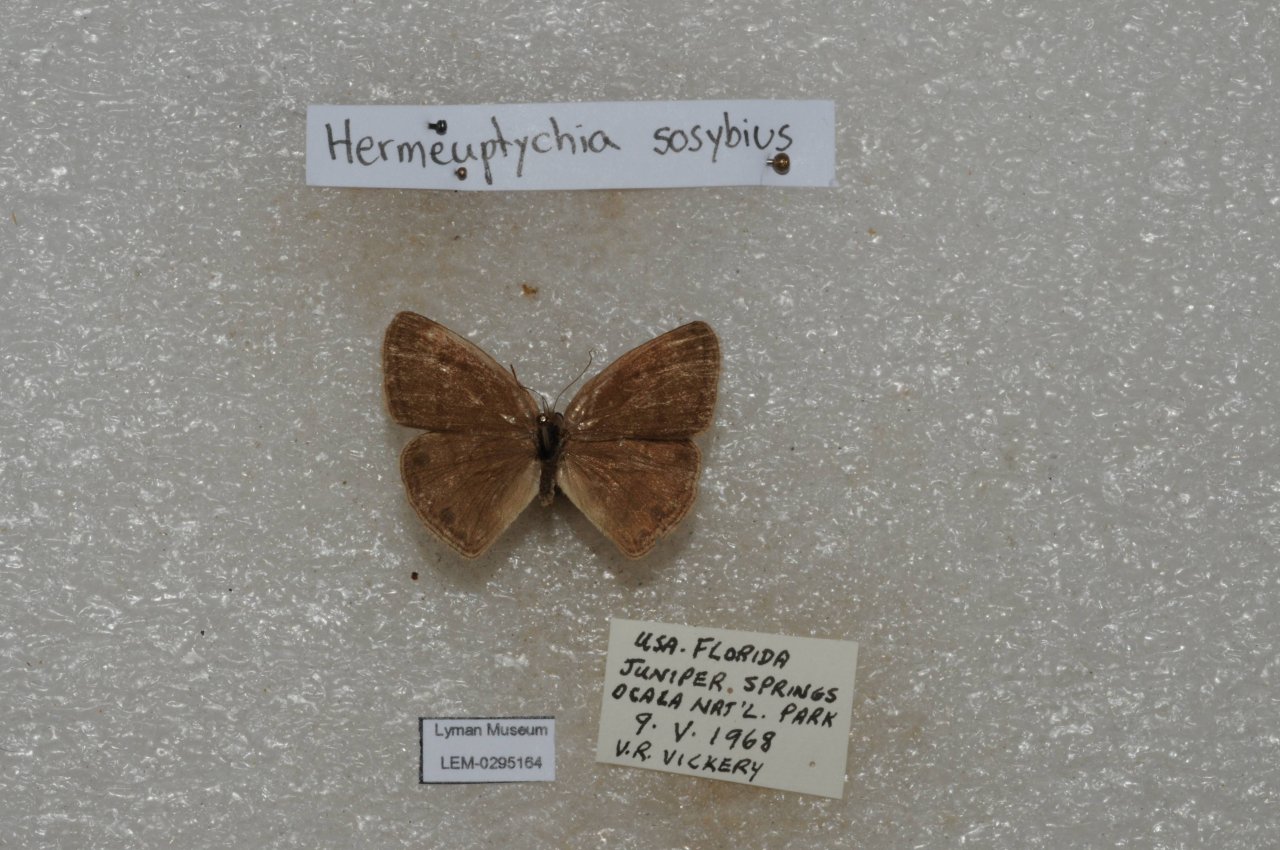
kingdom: Animalia
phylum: Arthropoda
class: Insecta
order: Lepidoptera
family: Nymphalidae
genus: Hermeuptychia
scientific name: Hermeuptychia hermes
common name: Carolina Satyr
